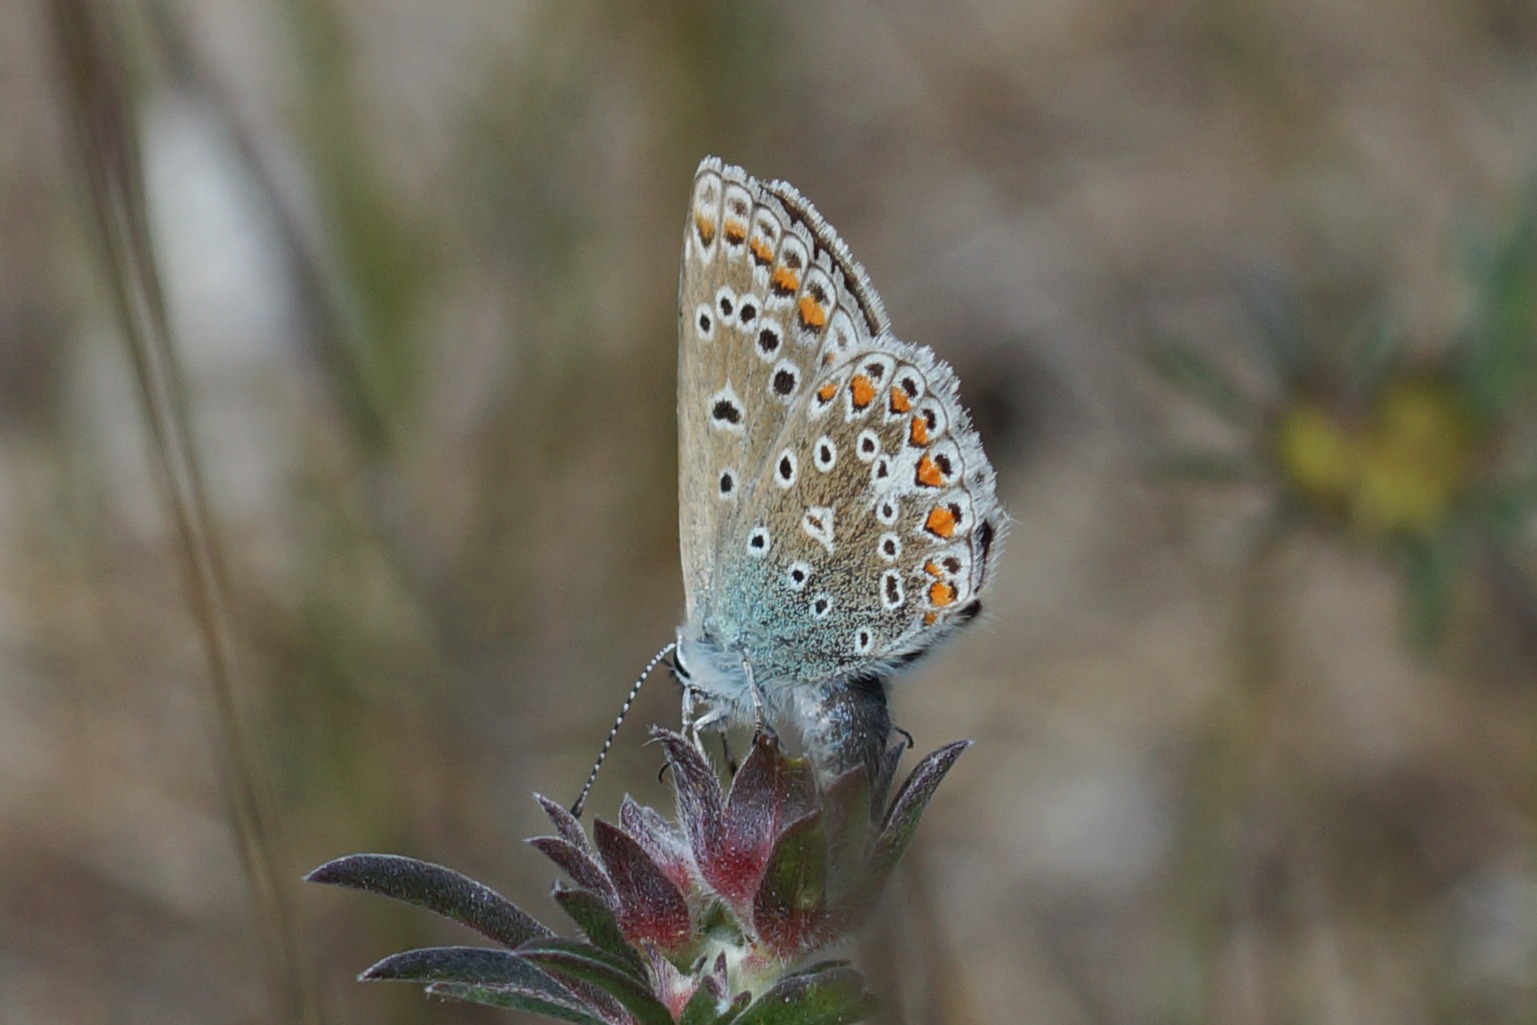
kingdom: Animalia
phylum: Arthropoda
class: Insecta
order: Lepidoptera
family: Lycaenidae
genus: Polyommatus
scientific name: Polyommatus icarus
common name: Almindelig blåfugl
